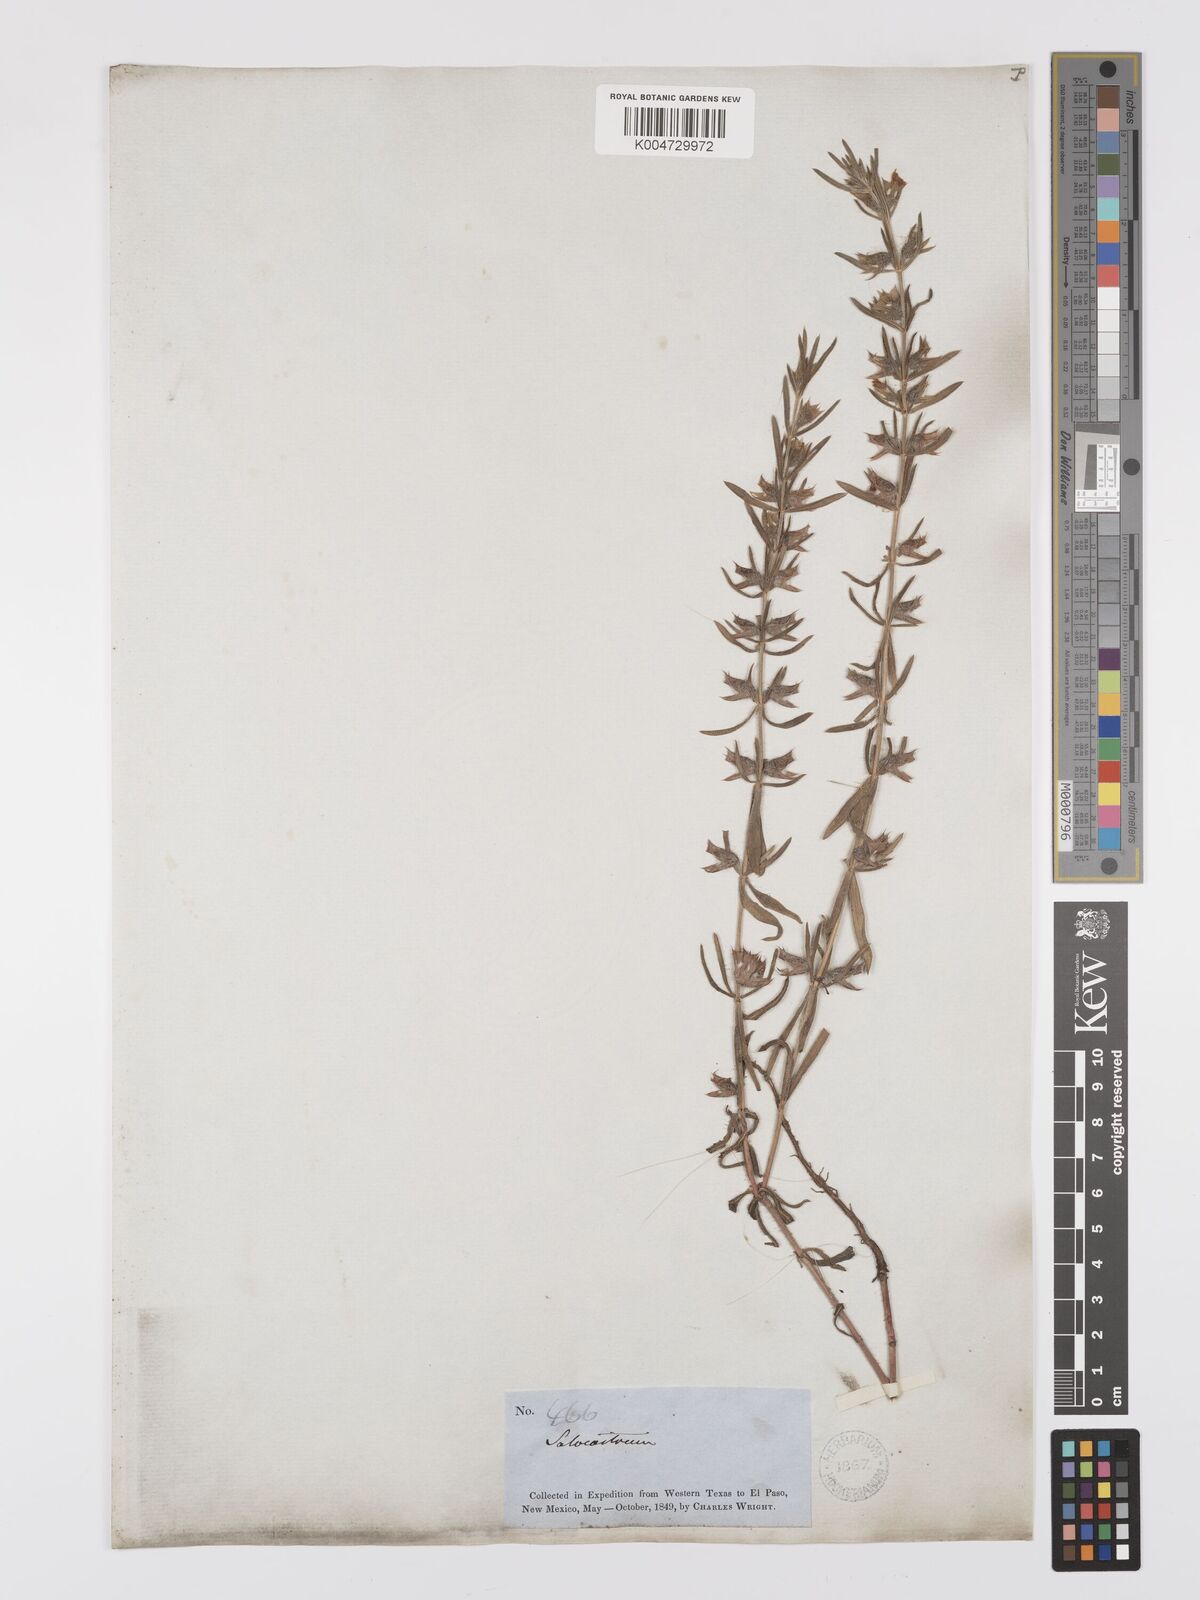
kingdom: Plantae
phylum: Tracheophyta
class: Magnoliopsida
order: Lamiales
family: Lamiaceae
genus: Salvia
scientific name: Salvia texana
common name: Texas sage
